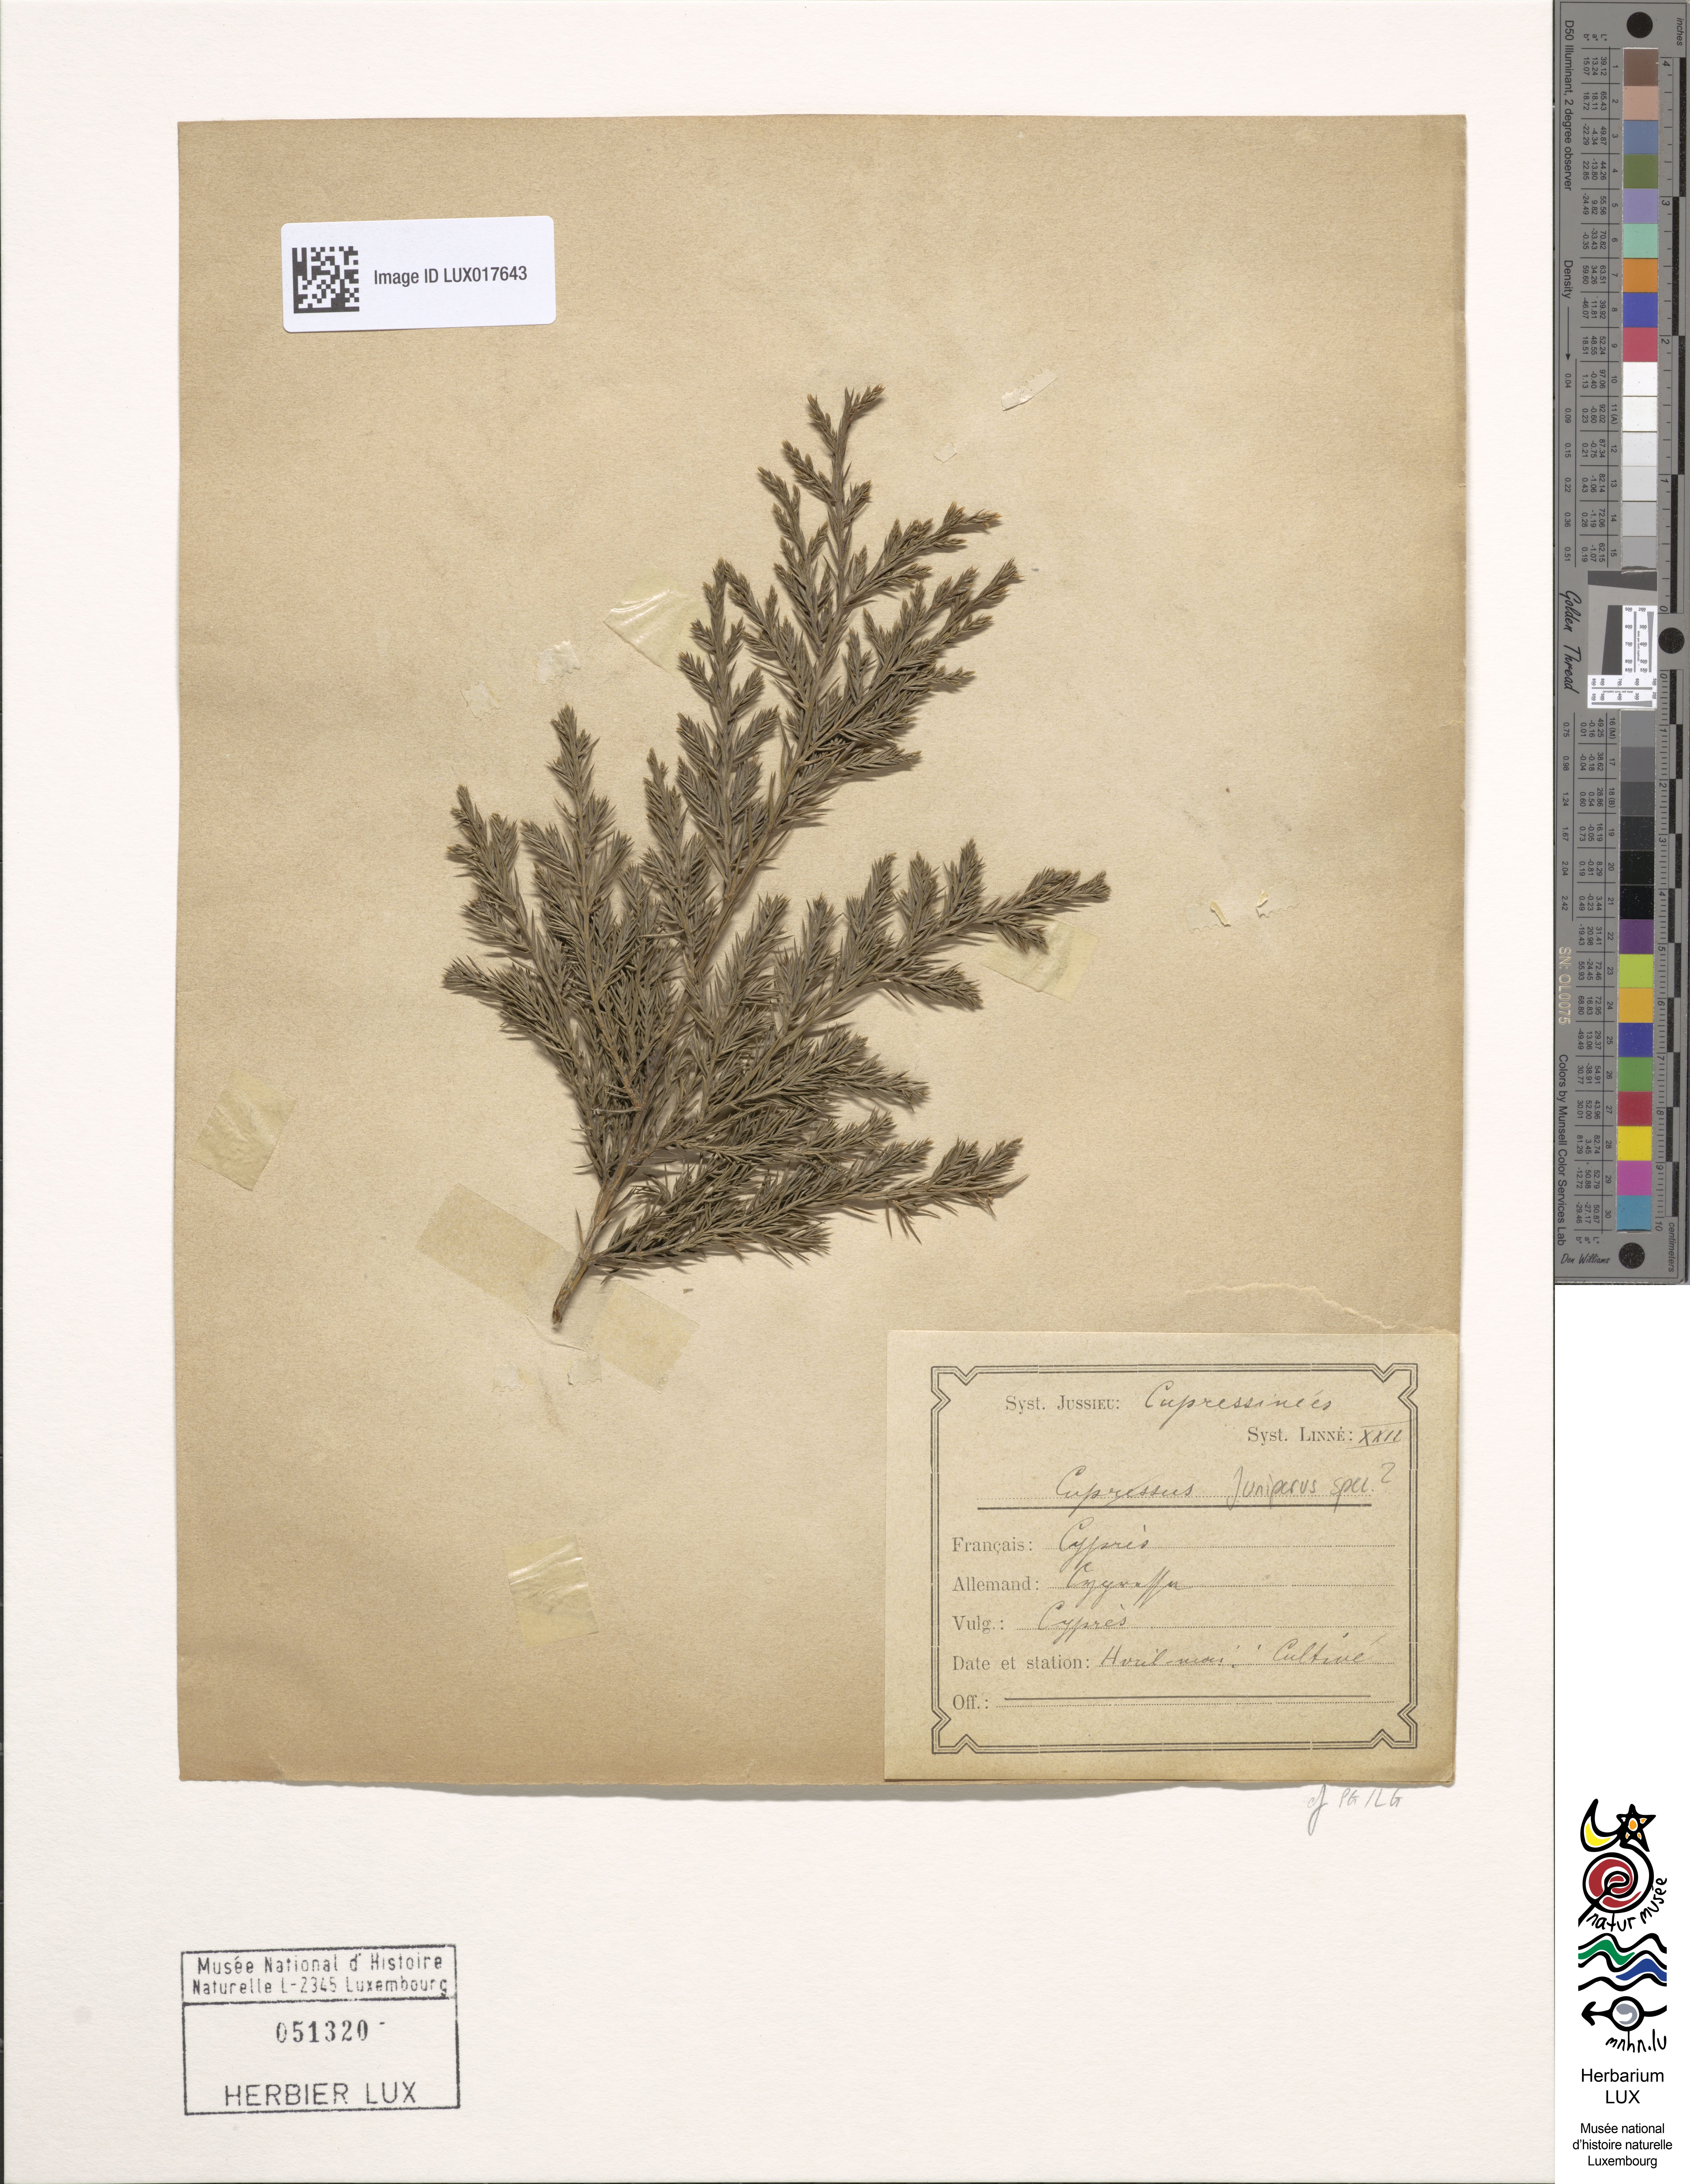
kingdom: Plantae
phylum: Tracheophyta
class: Pinopsida
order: Pinales
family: Cupressaceae
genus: Juniperus
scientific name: Juniperus
